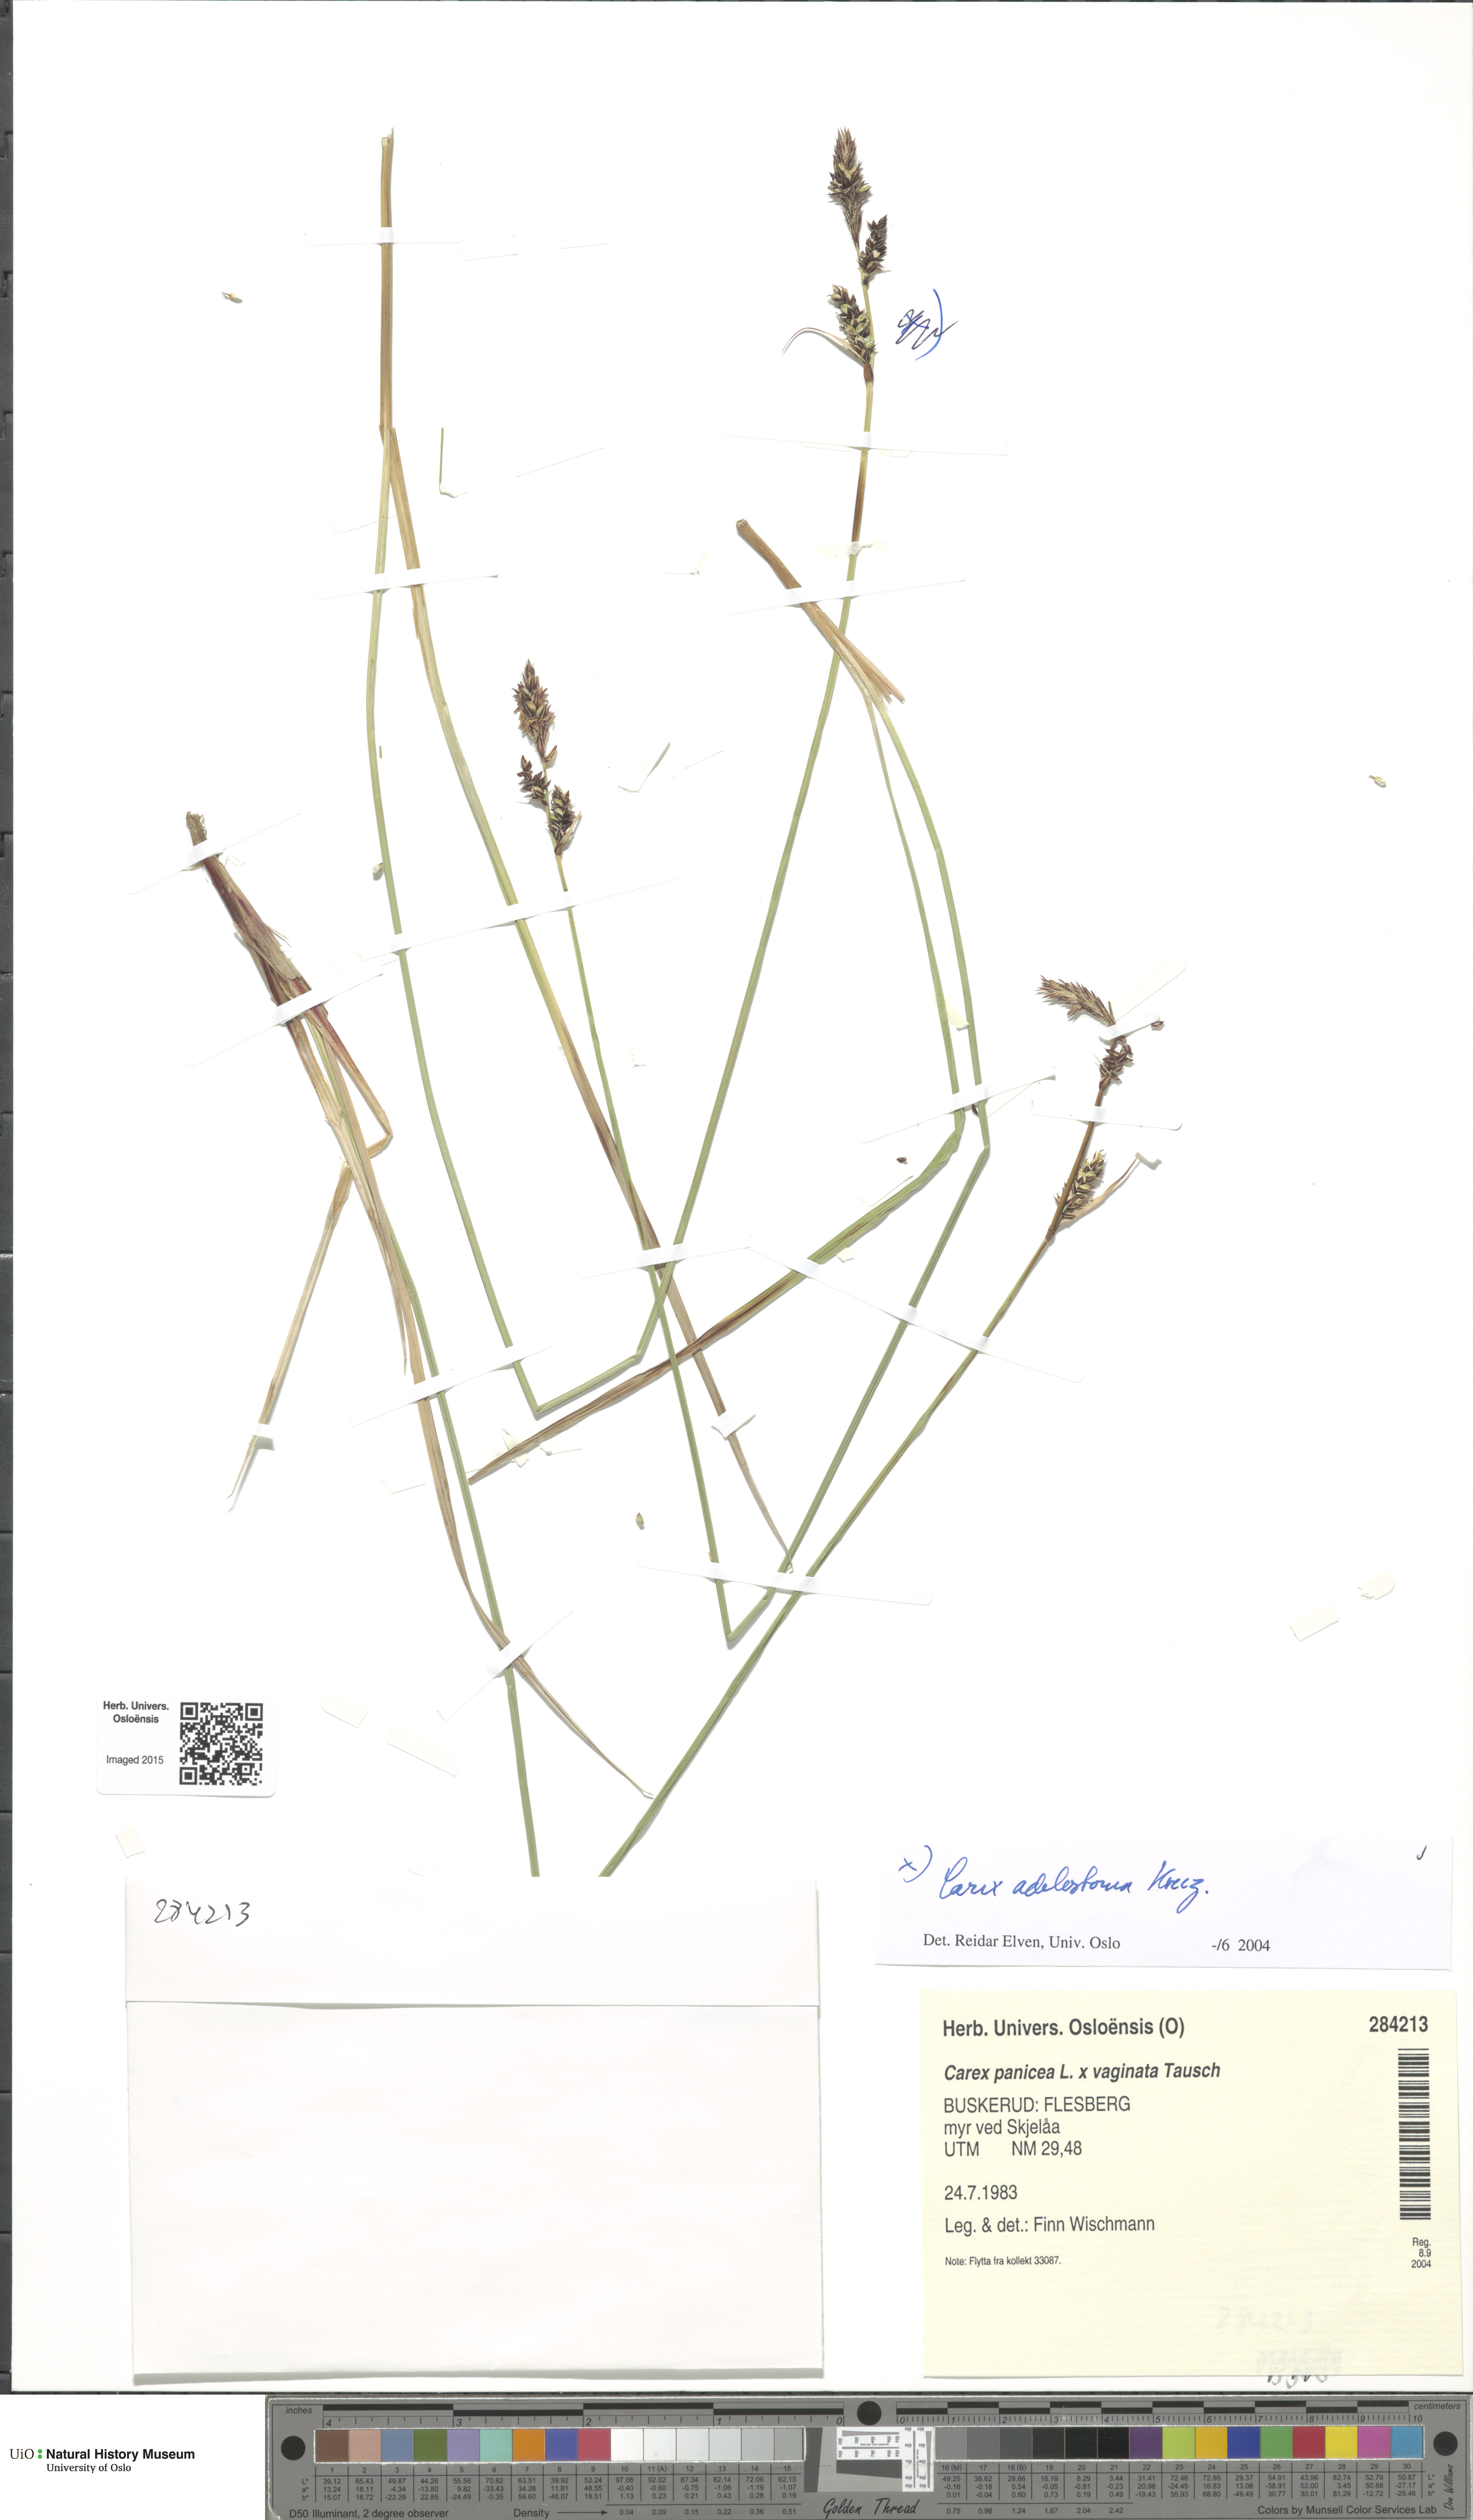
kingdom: Plantae
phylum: Tracheophyta
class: Liliopsida
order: Poales
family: Cyperaceae
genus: Carex
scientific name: Carex adelostoma
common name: Circumpolar sedge
